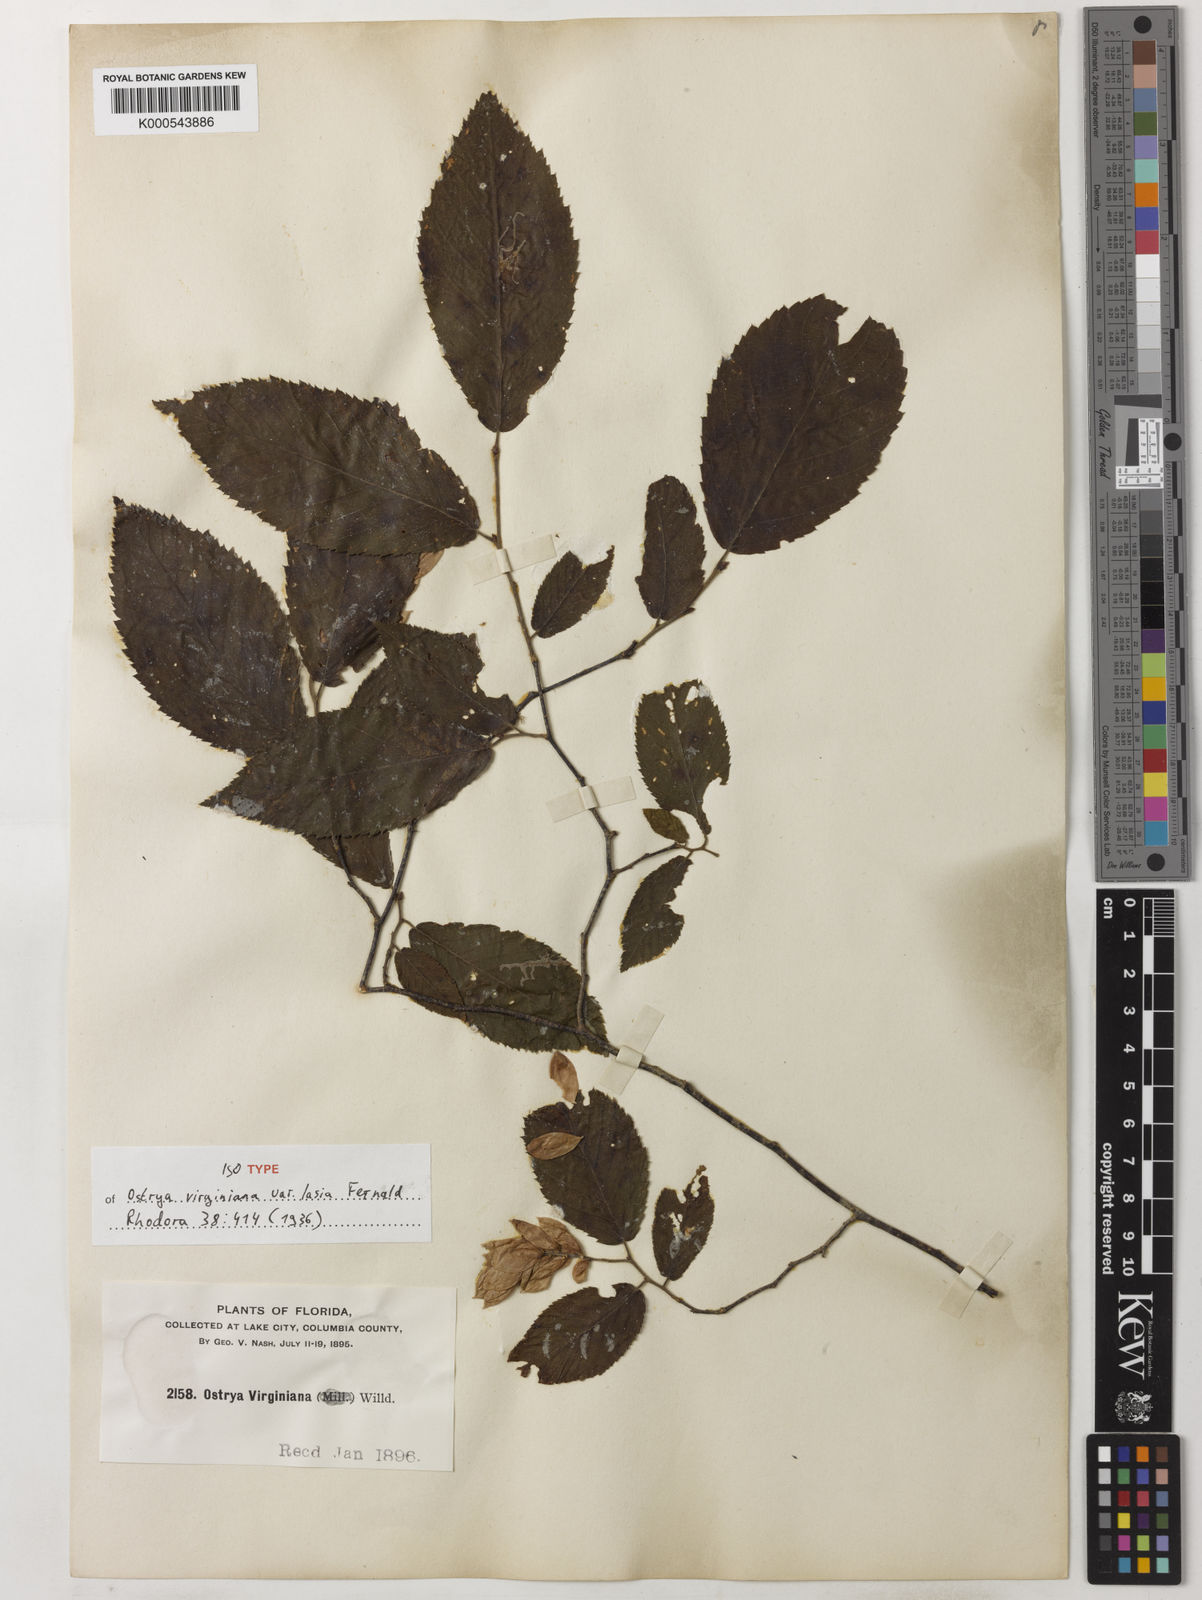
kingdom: Plantae
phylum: Tracheophyta
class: Magnoliopsida
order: Fagales
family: Betulaceae
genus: Ostrya
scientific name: Ostrya virginiana
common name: Ironwood
